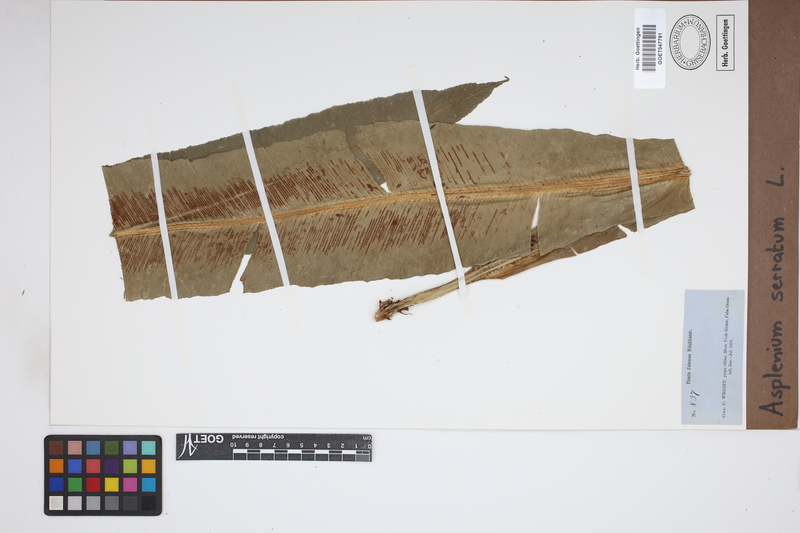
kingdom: Plantae
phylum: Tracheophyta
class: Polypodiopsida
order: Polypodiales
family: Aspleniaceae
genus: Asplenium
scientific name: Asplenium serratum
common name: Wild birdnest fern
